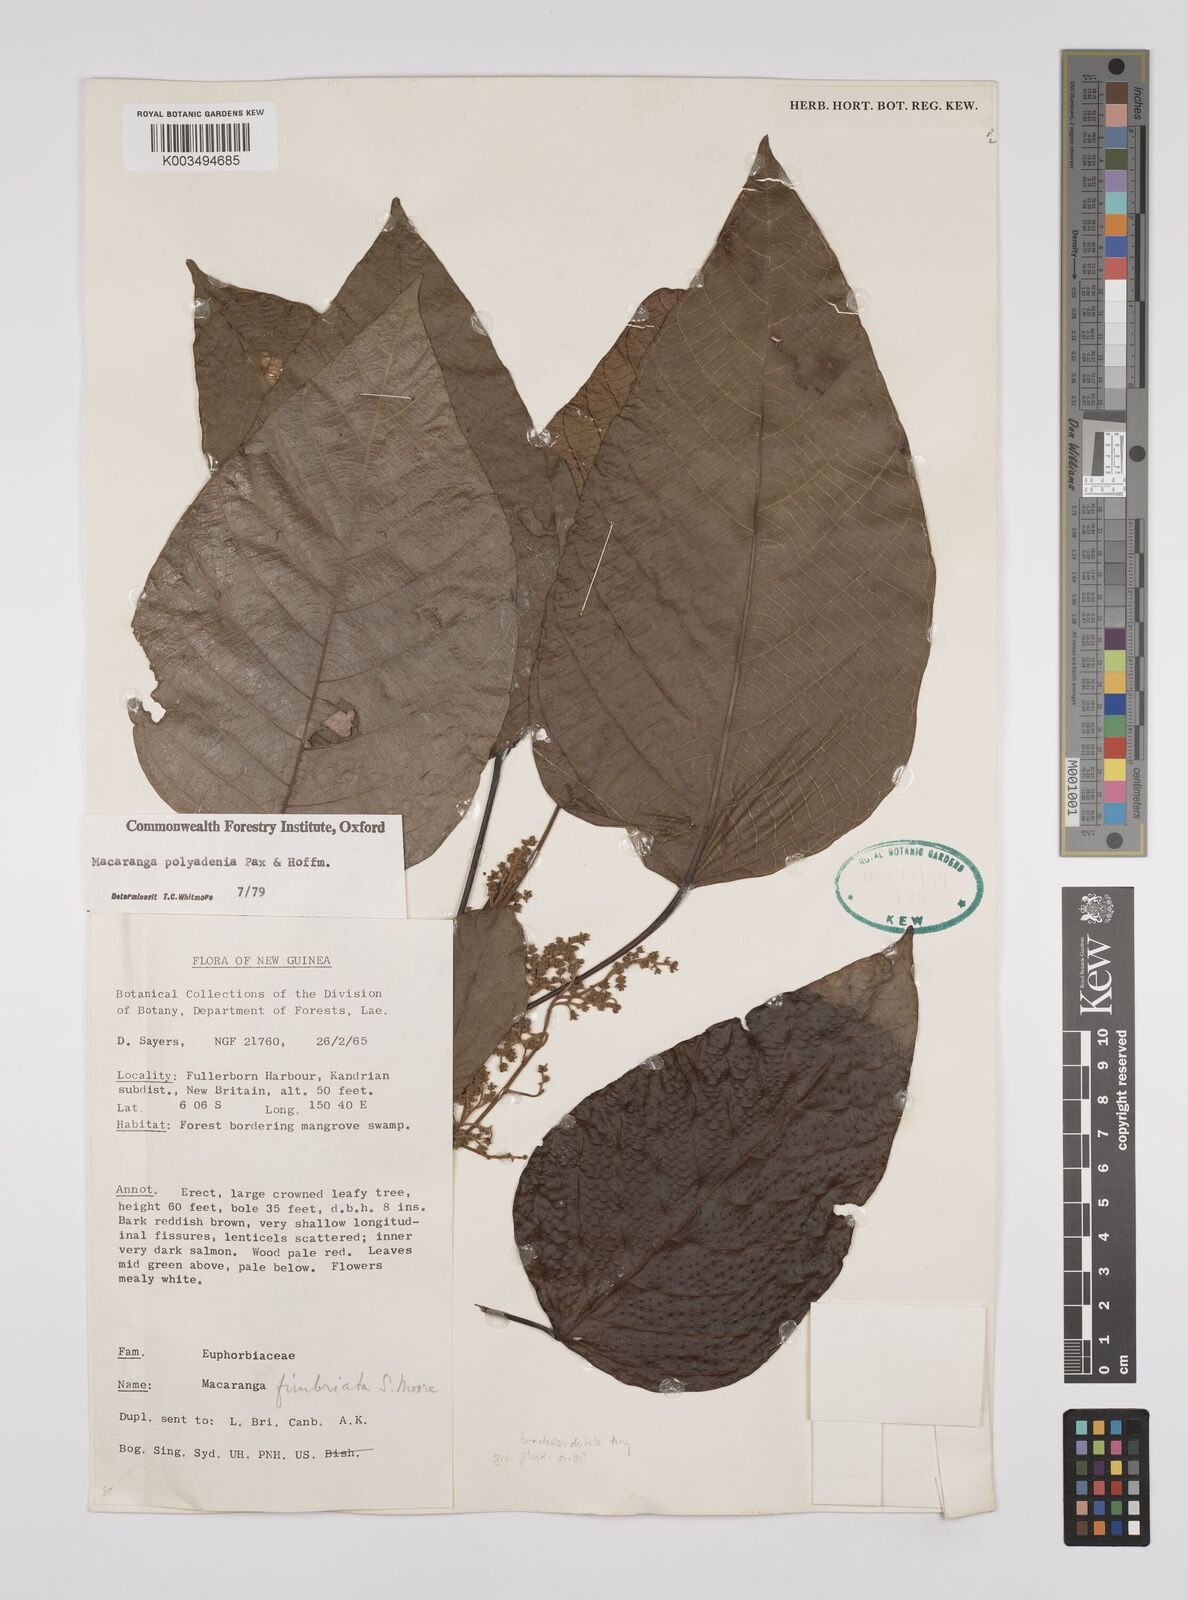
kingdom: Plantae
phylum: Tracheophyta
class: Magnoliopsida
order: Malpighiales
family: Euphorbiaceae
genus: Macaranga
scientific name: Macaranga polyadenia
